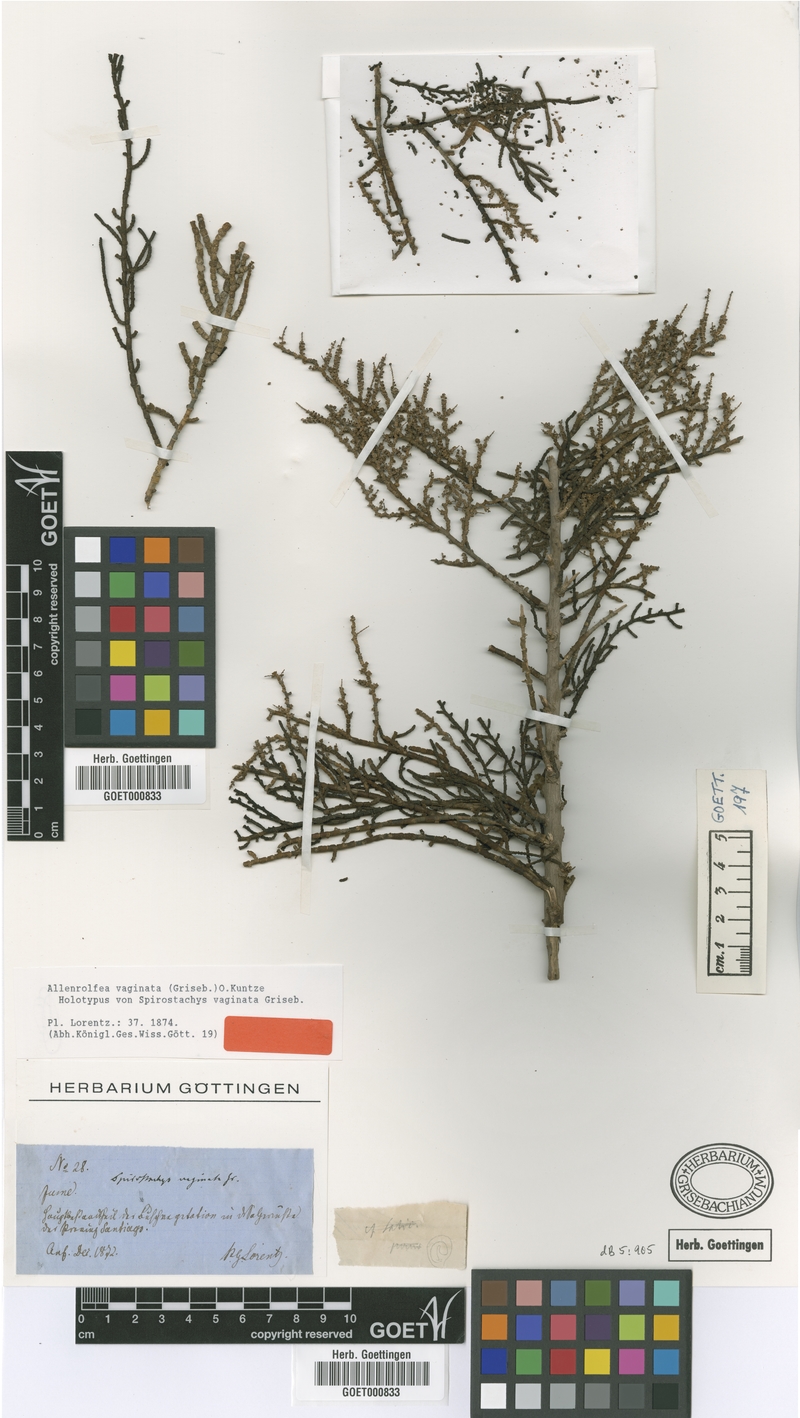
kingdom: Plantae
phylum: Tracheophyta
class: Magnoliopsida
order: Caryophyllales
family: Amaranthaceae
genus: Allenrolfea
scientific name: Allenrolfea vaginata
